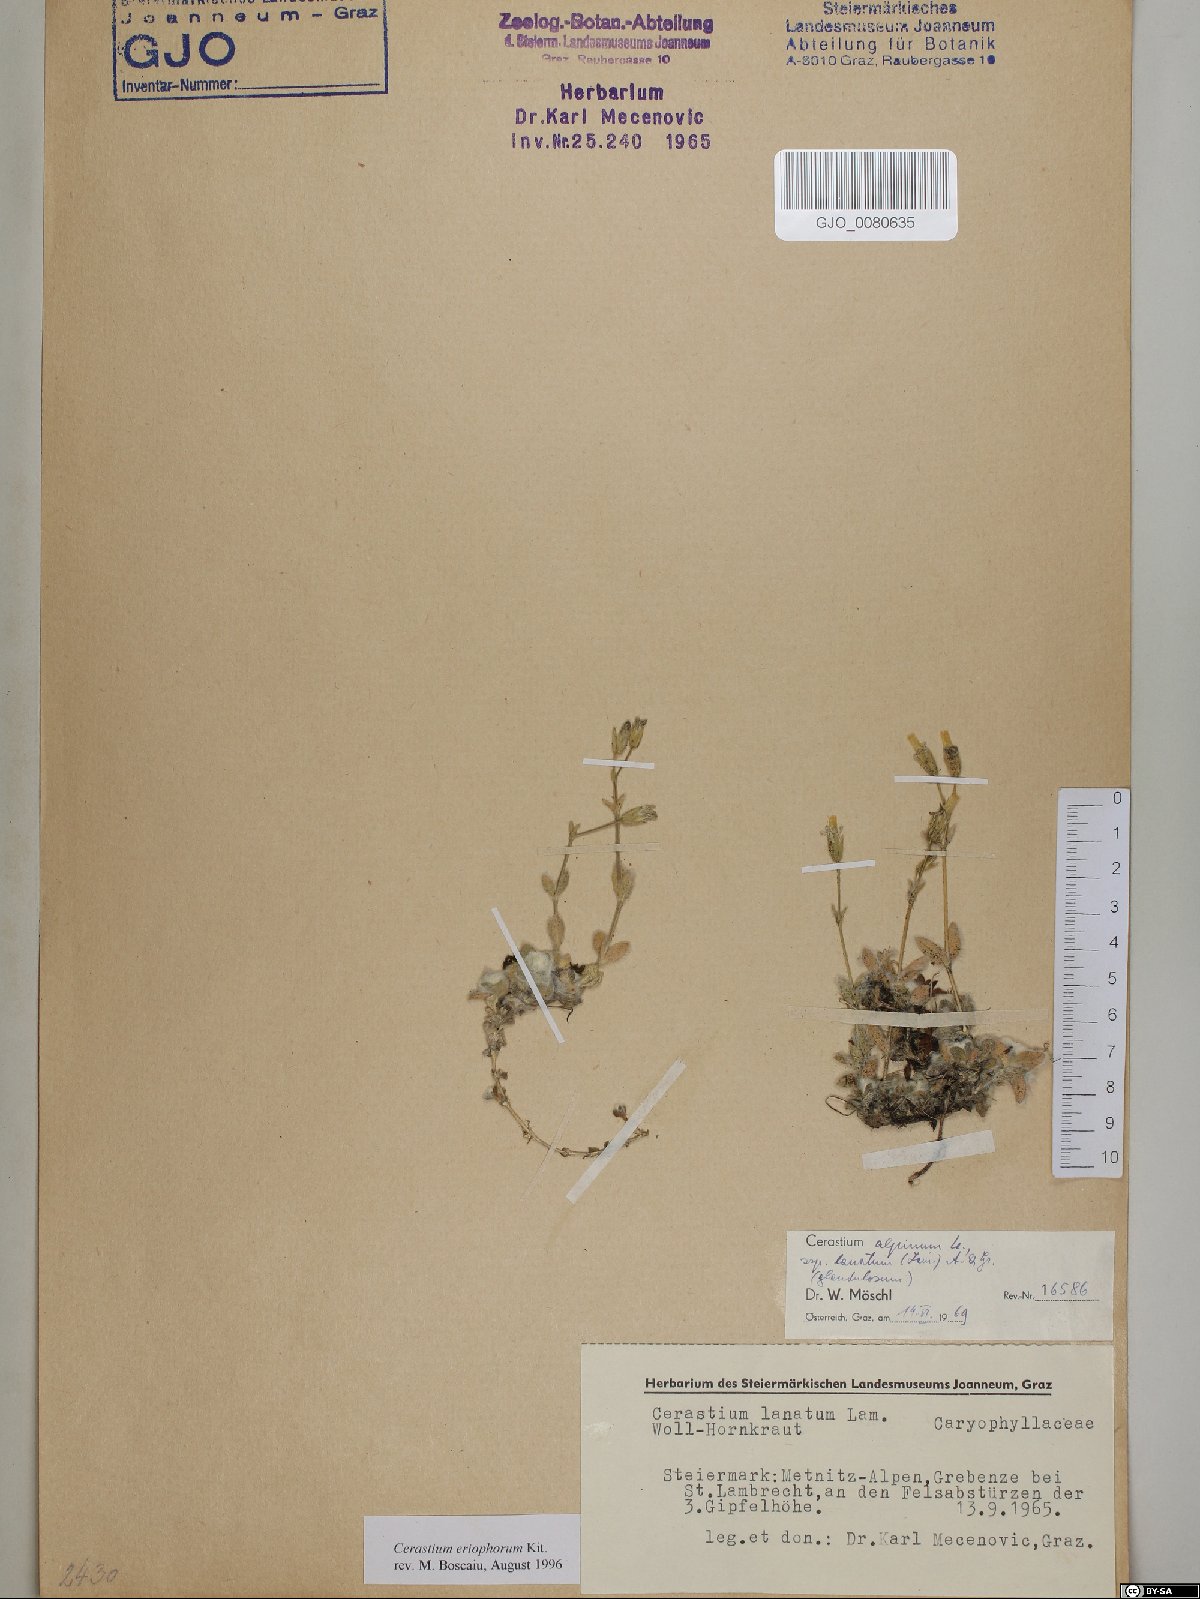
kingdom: Plantae
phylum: Tracheophyta
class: Magnoliopsida
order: Caryophyllales
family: Caryophyllaceae
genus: Cerastium
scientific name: Cerastium eriophorum
